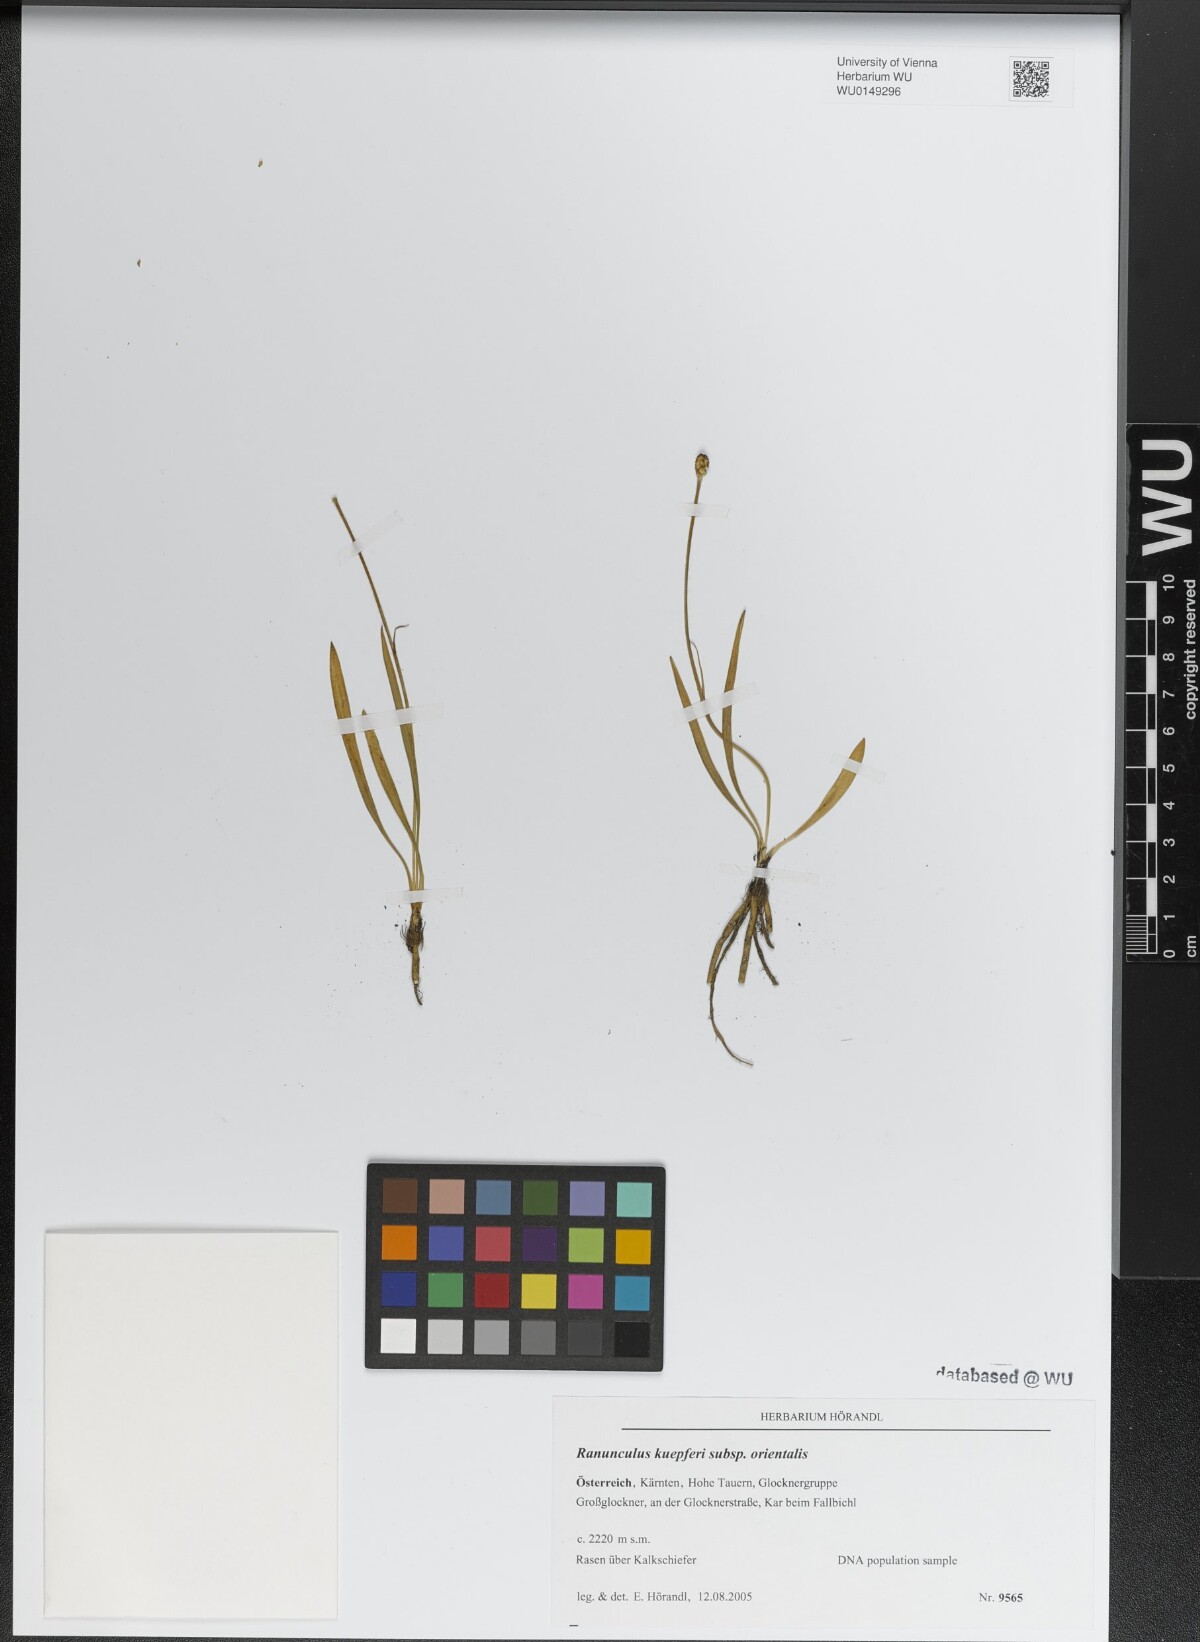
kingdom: Plantae
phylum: Tracheophyta
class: Magnoliopsida
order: Ranunculales
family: Ranunculaceae
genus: Ranunculus
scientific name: Ranunculus kuepferi
